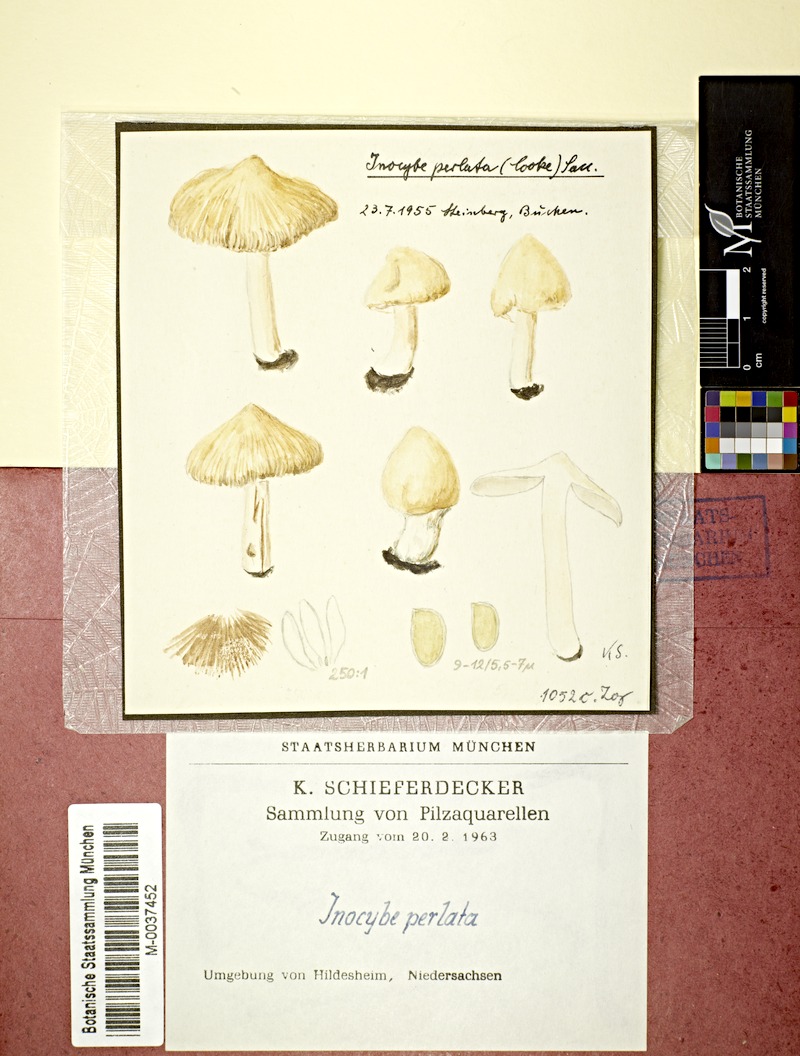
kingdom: Fungi
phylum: Basidiomycota
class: Agaricomycetes
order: Agaricales
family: Inocybaceae
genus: Pseudosperma
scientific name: Pseudosperma rimosum
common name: Split fibrecap
